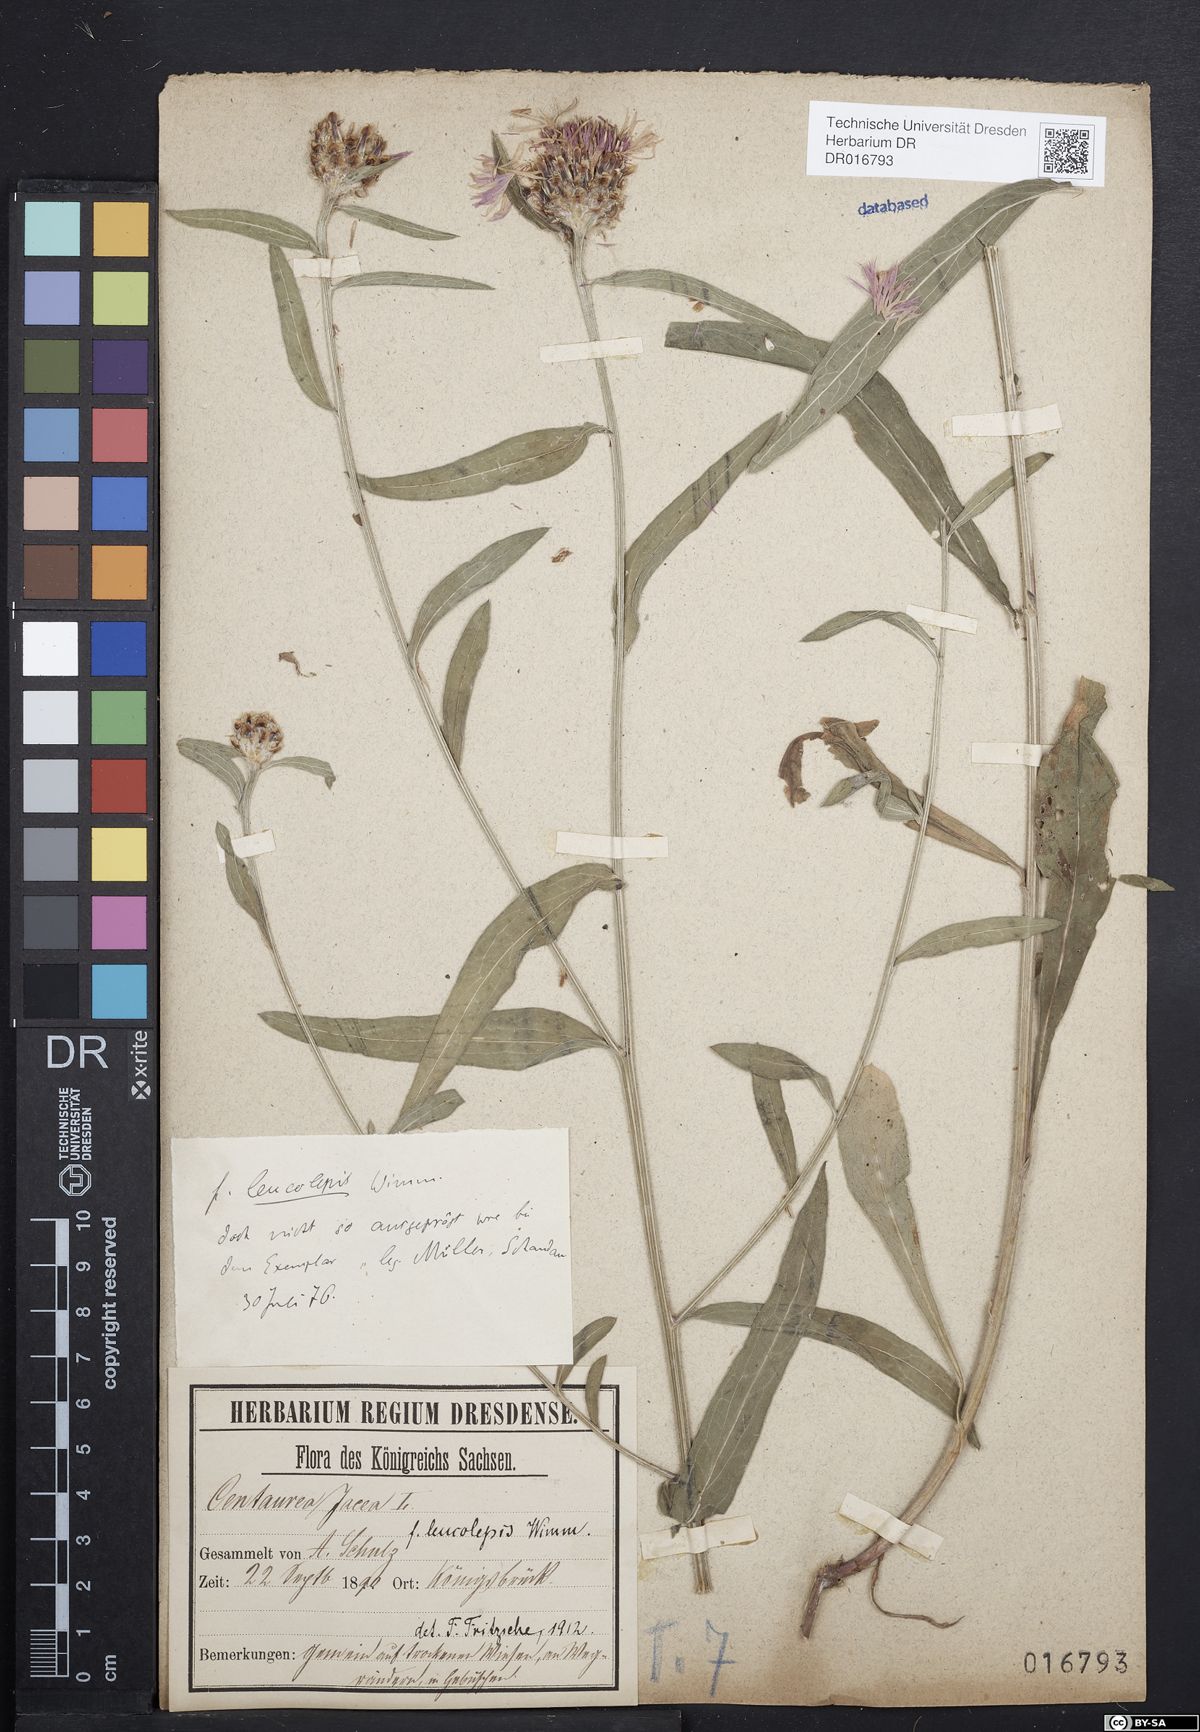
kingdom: Plantae
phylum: Tracheophyta
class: Magnoliopsida
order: Asterales
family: Asteraceae
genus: Centaurea
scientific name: Centaurea jacea
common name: Brown knapweed
